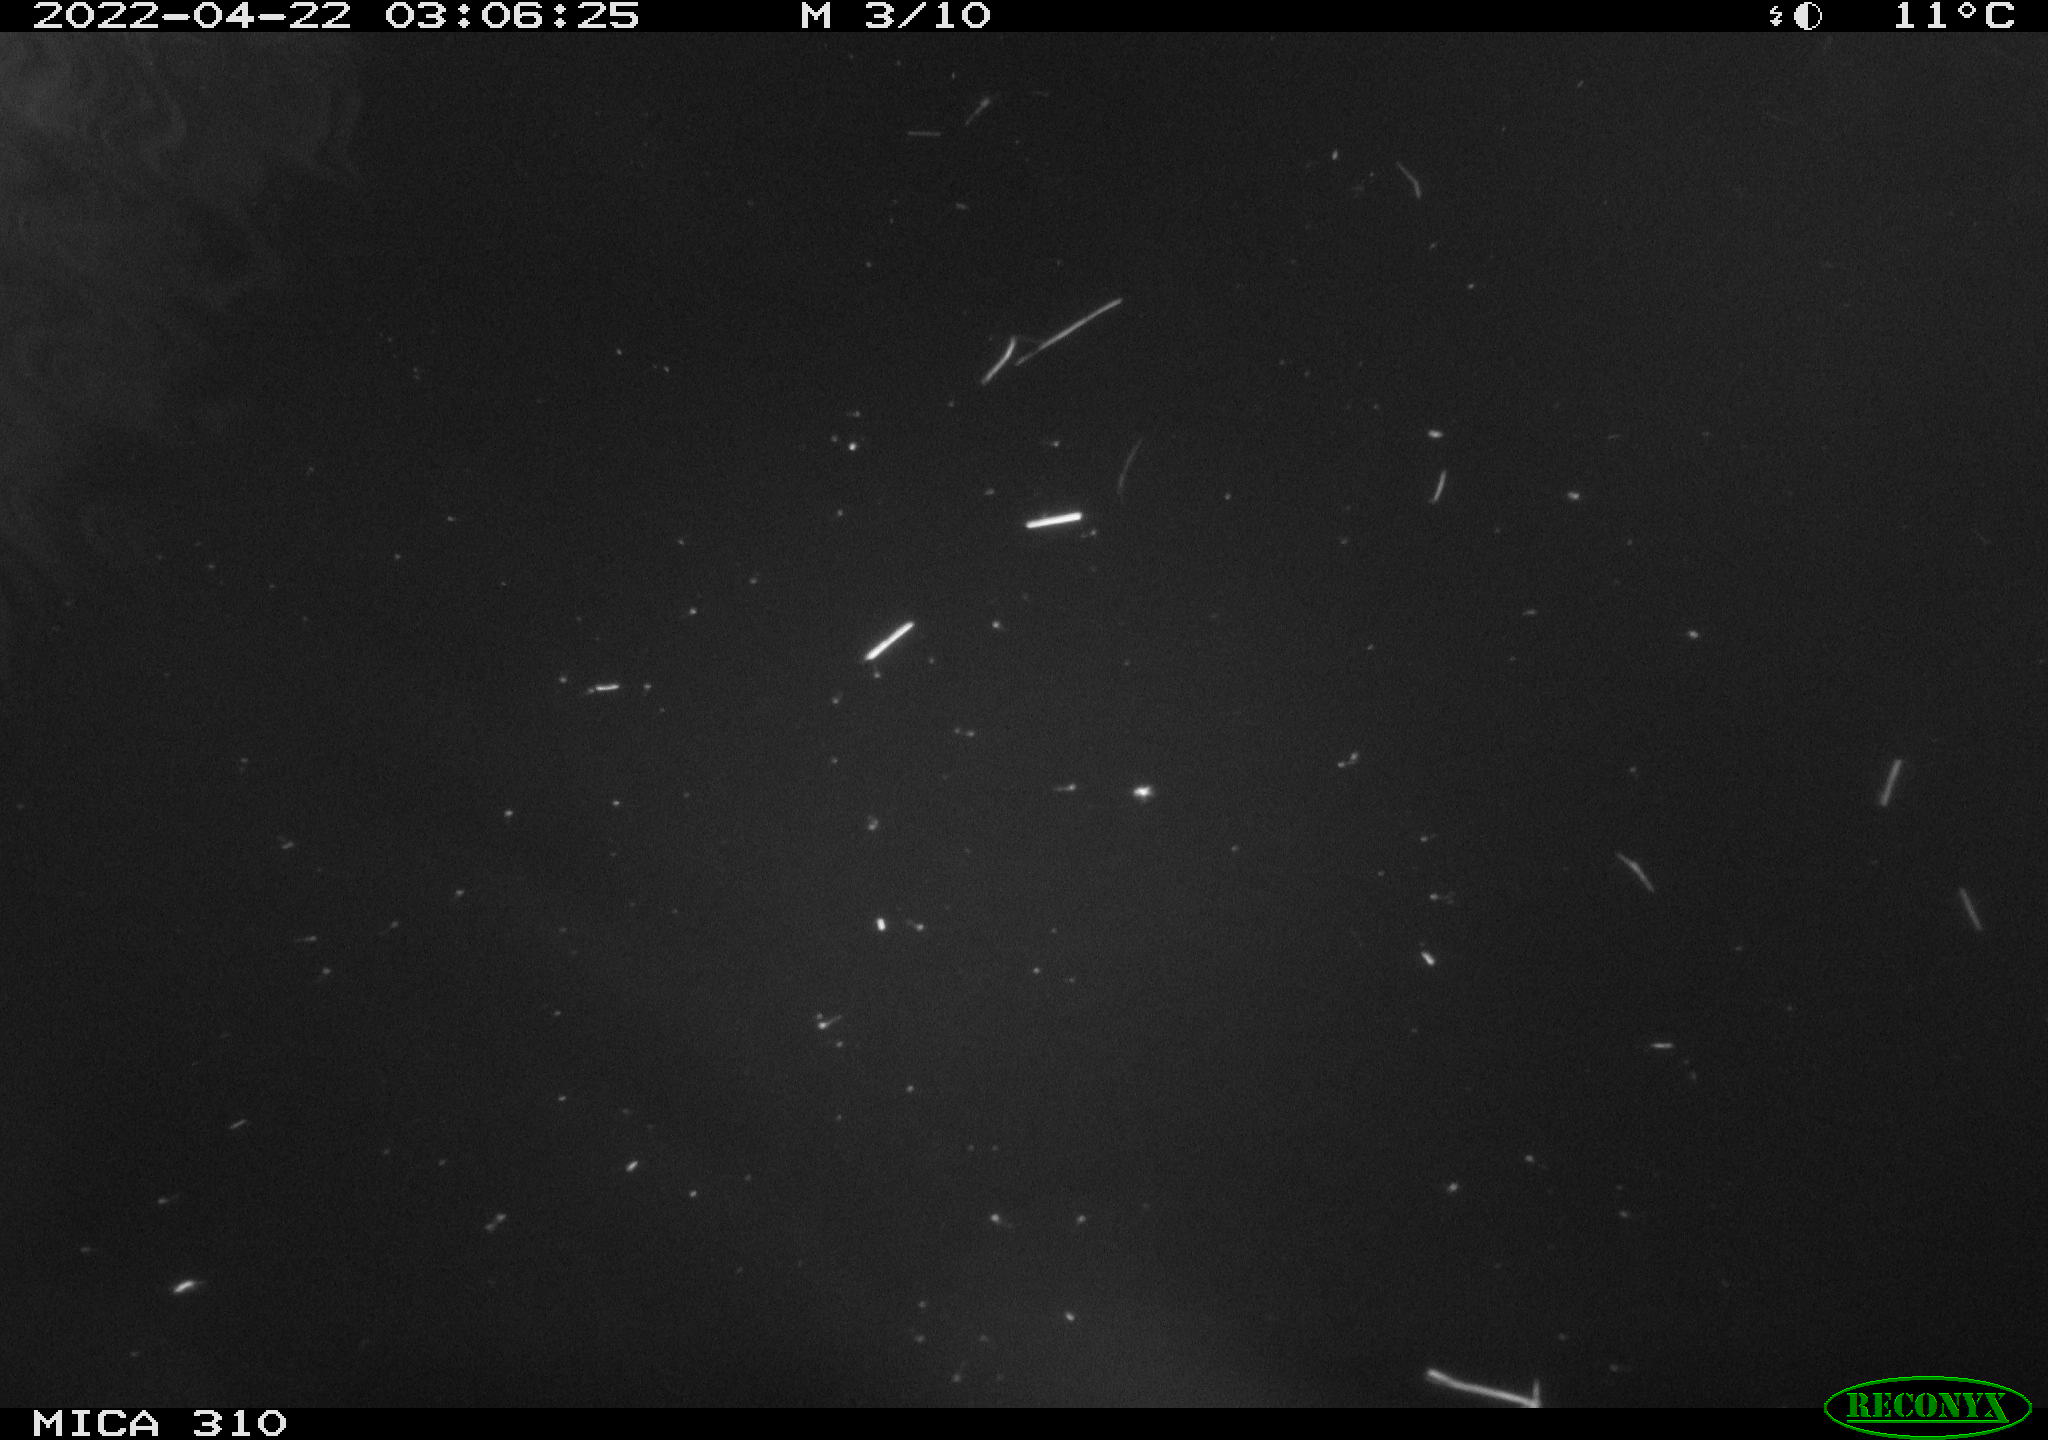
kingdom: Animalia
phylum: Chordata
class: Aves
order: Anseriformes
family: Anatidae
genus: Anas
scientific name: Anas platyrhynchos
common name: Mallard
